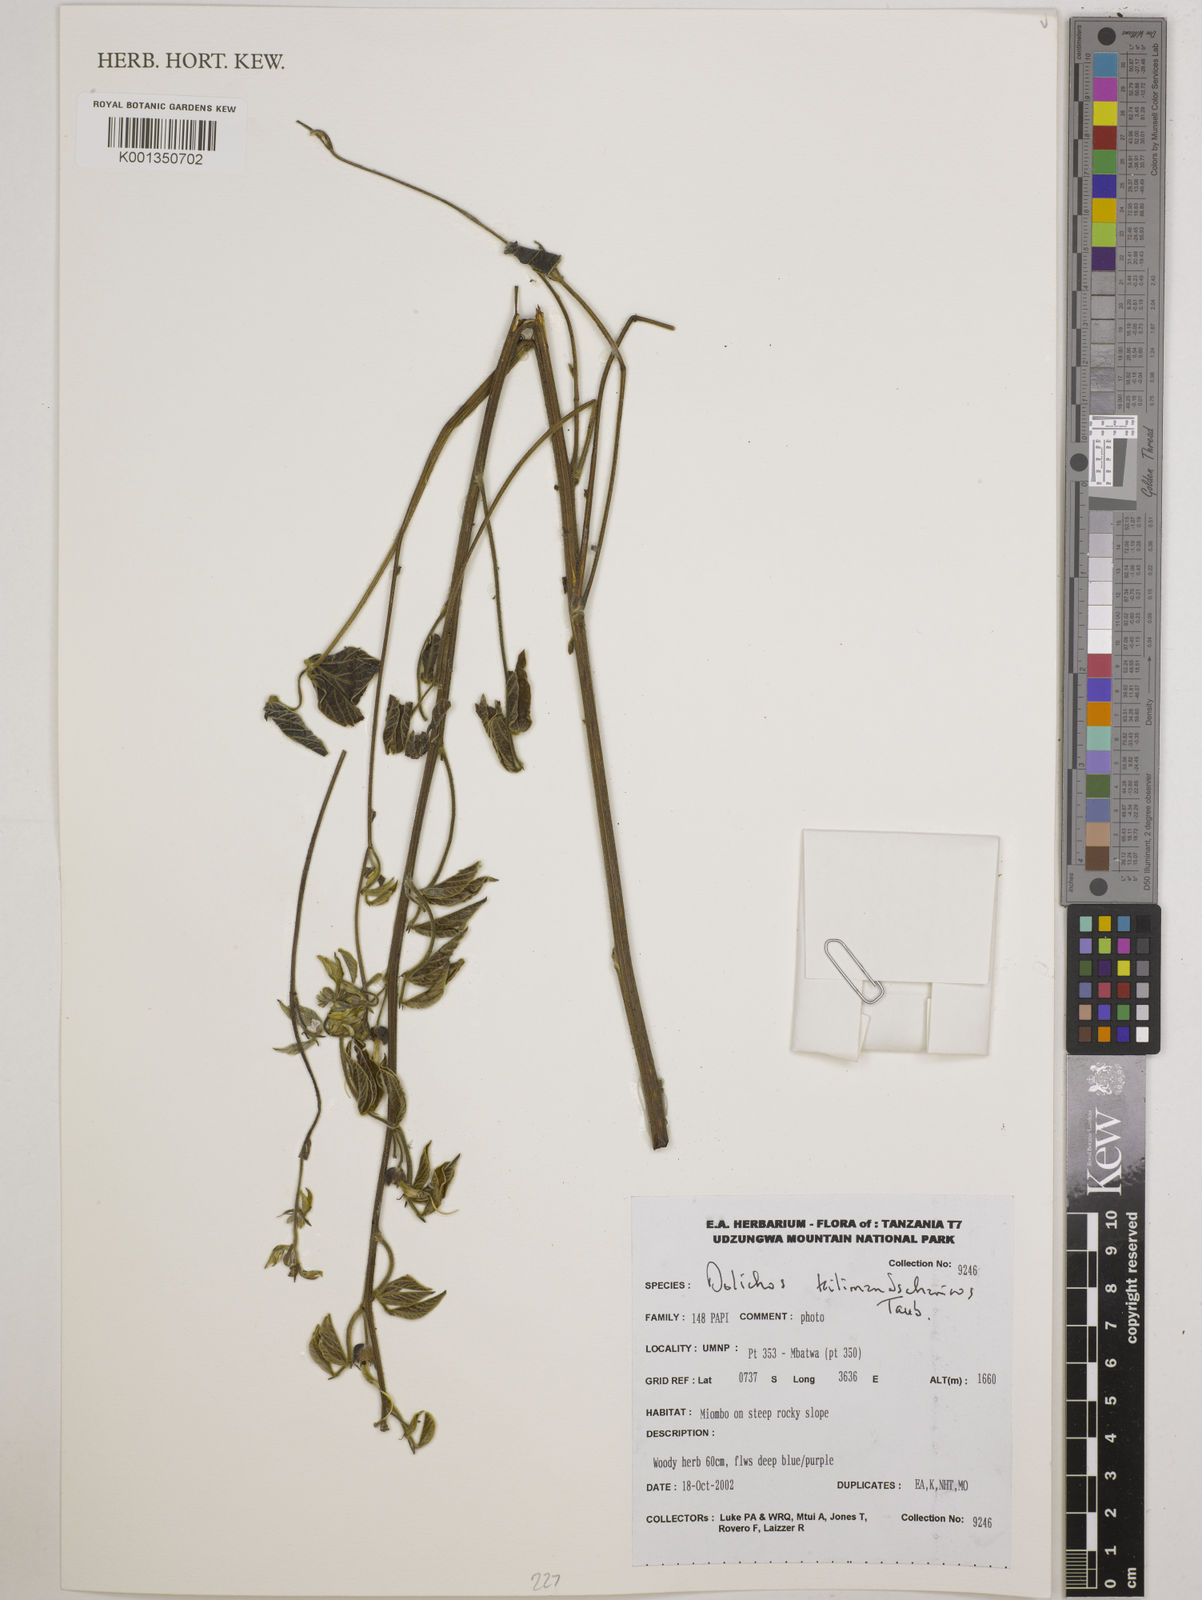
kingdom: Plantae
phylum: Tracheophyta
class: Magnoliopsida
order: Fabales
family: Fabaceae
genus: Dolichos
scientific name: Dolichos kilimandscharicus
